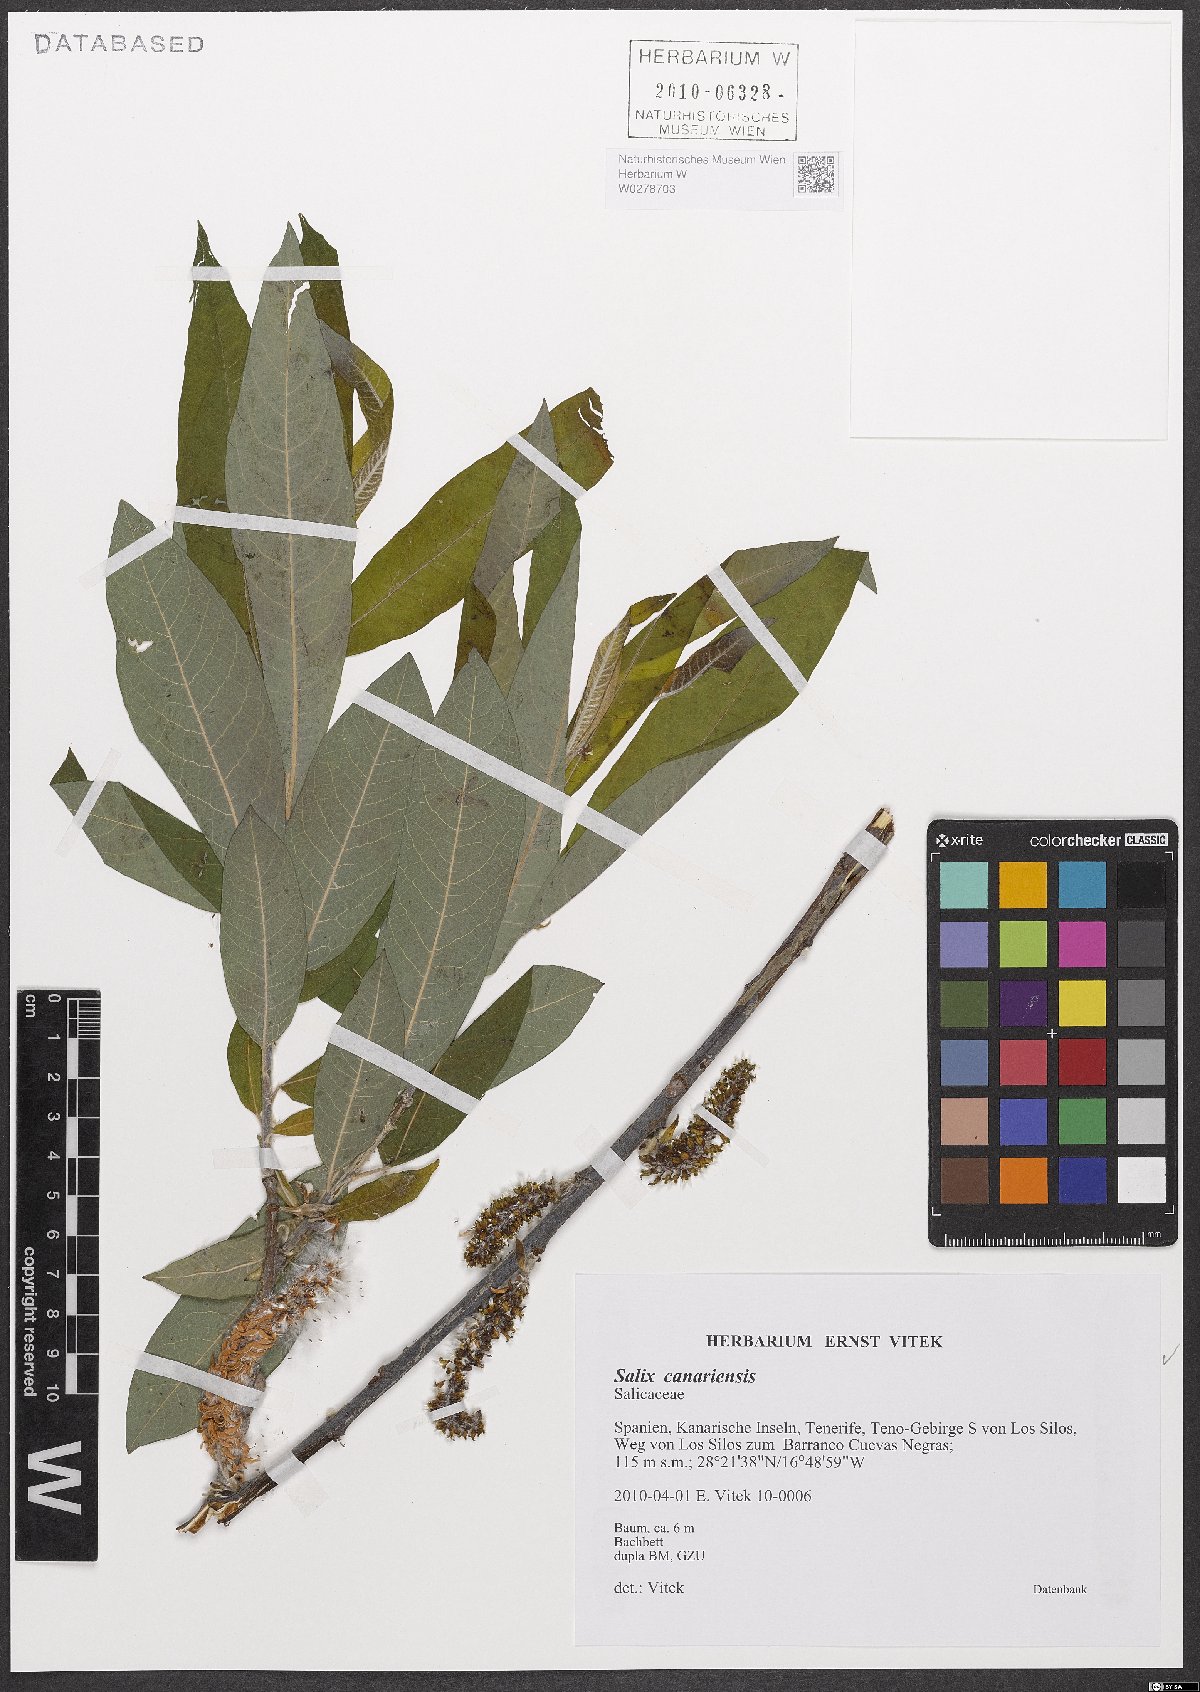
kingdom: Plantae
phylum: Tracheophyta
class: Magnoliopsida
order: Malpighiales
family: Salicaceae
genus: Salix
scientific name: Salix canariensis
